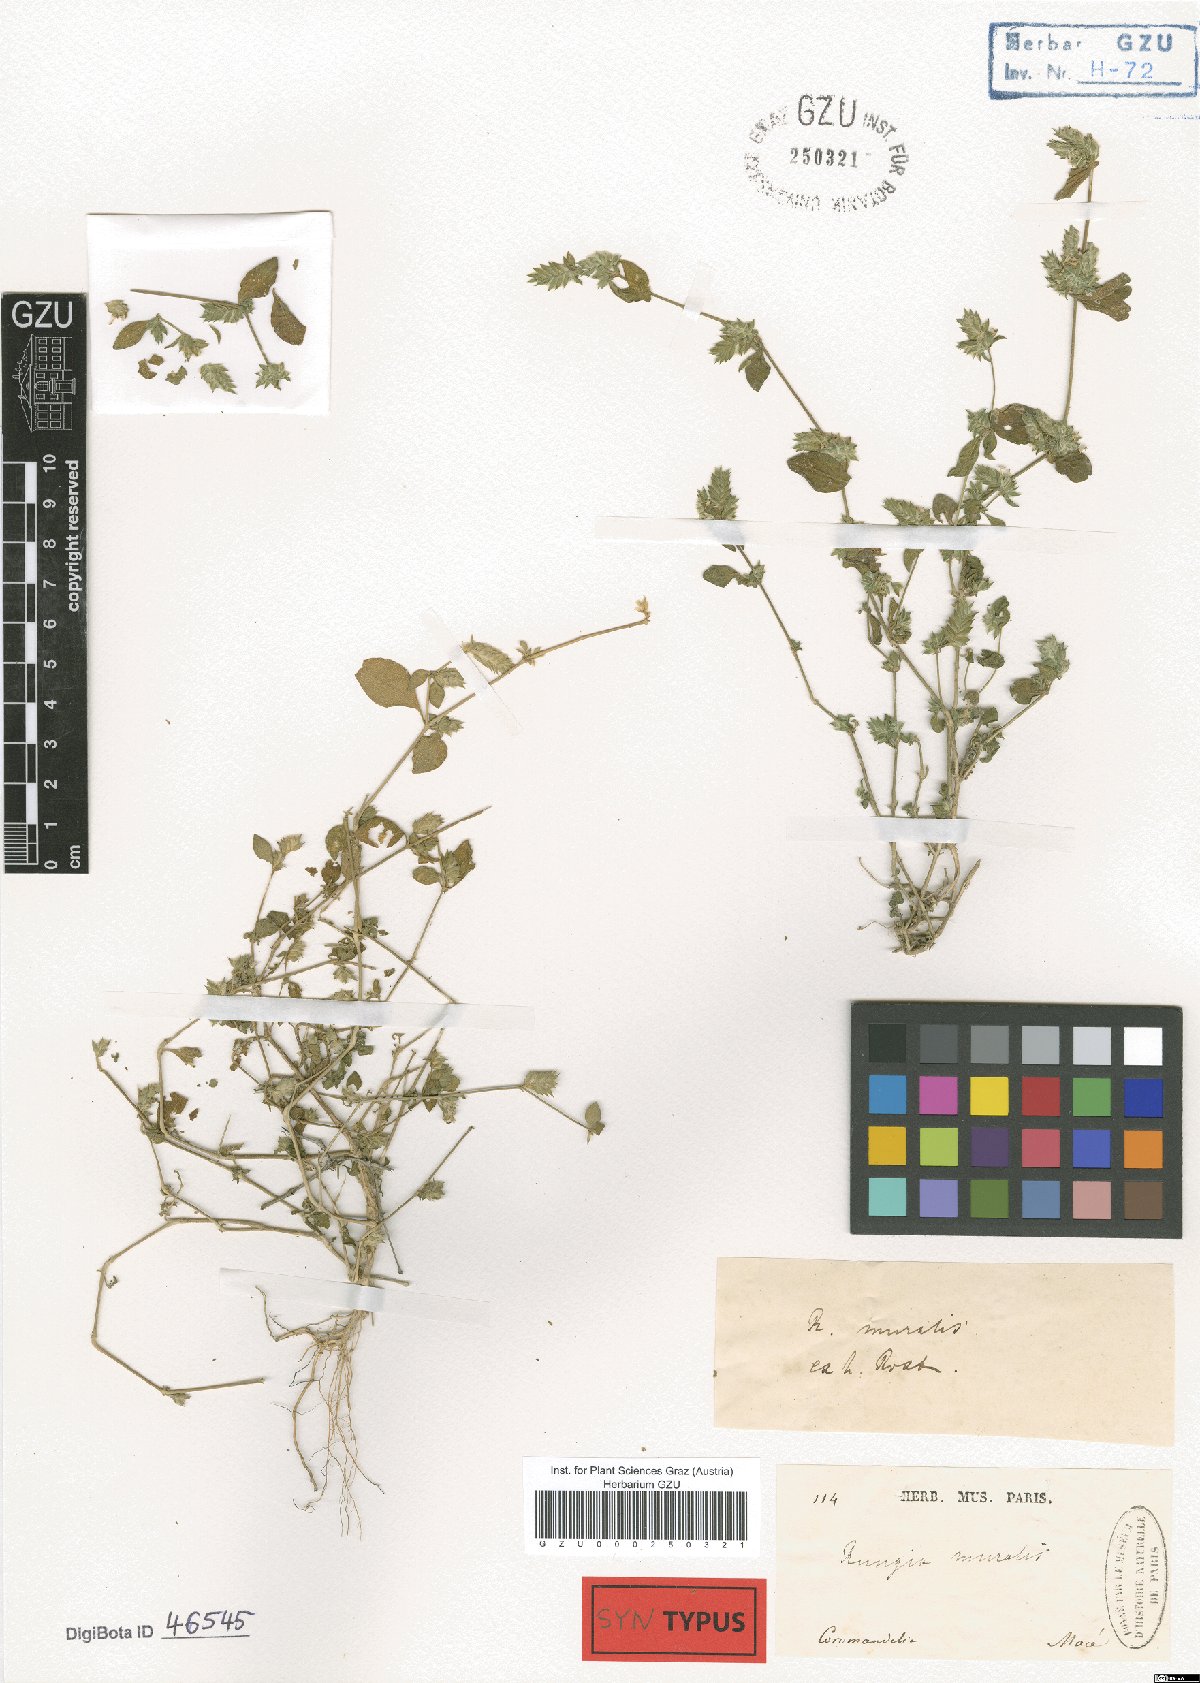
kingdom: Plantae
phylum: Tracheophyta
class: Magnoliopsida
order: Lamiales
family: Acanthaceae
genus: Rungia
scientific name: Rungia pectinata
